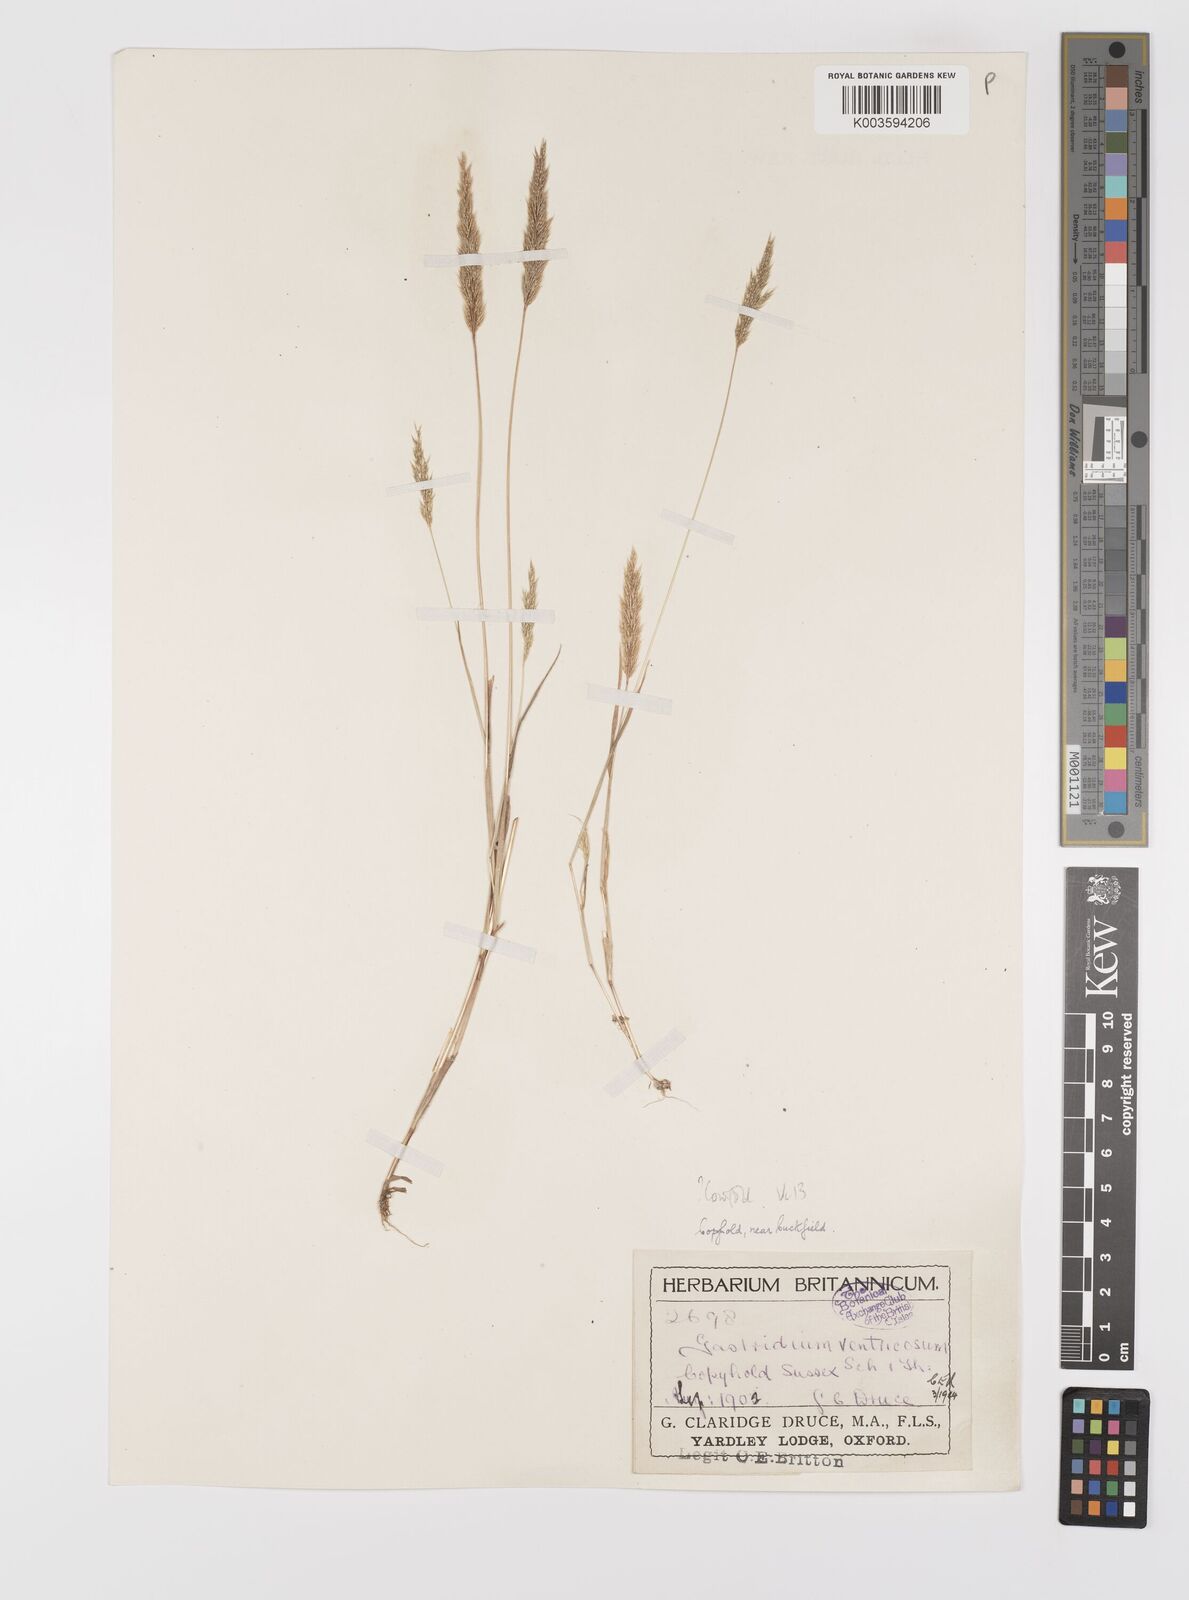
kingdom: Plantae
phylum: Tracheophyta
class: Liliopsida
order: Poales
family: Poaceae
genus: Gastridium
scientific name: Gastridium ventricosum
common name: Nit-grass
